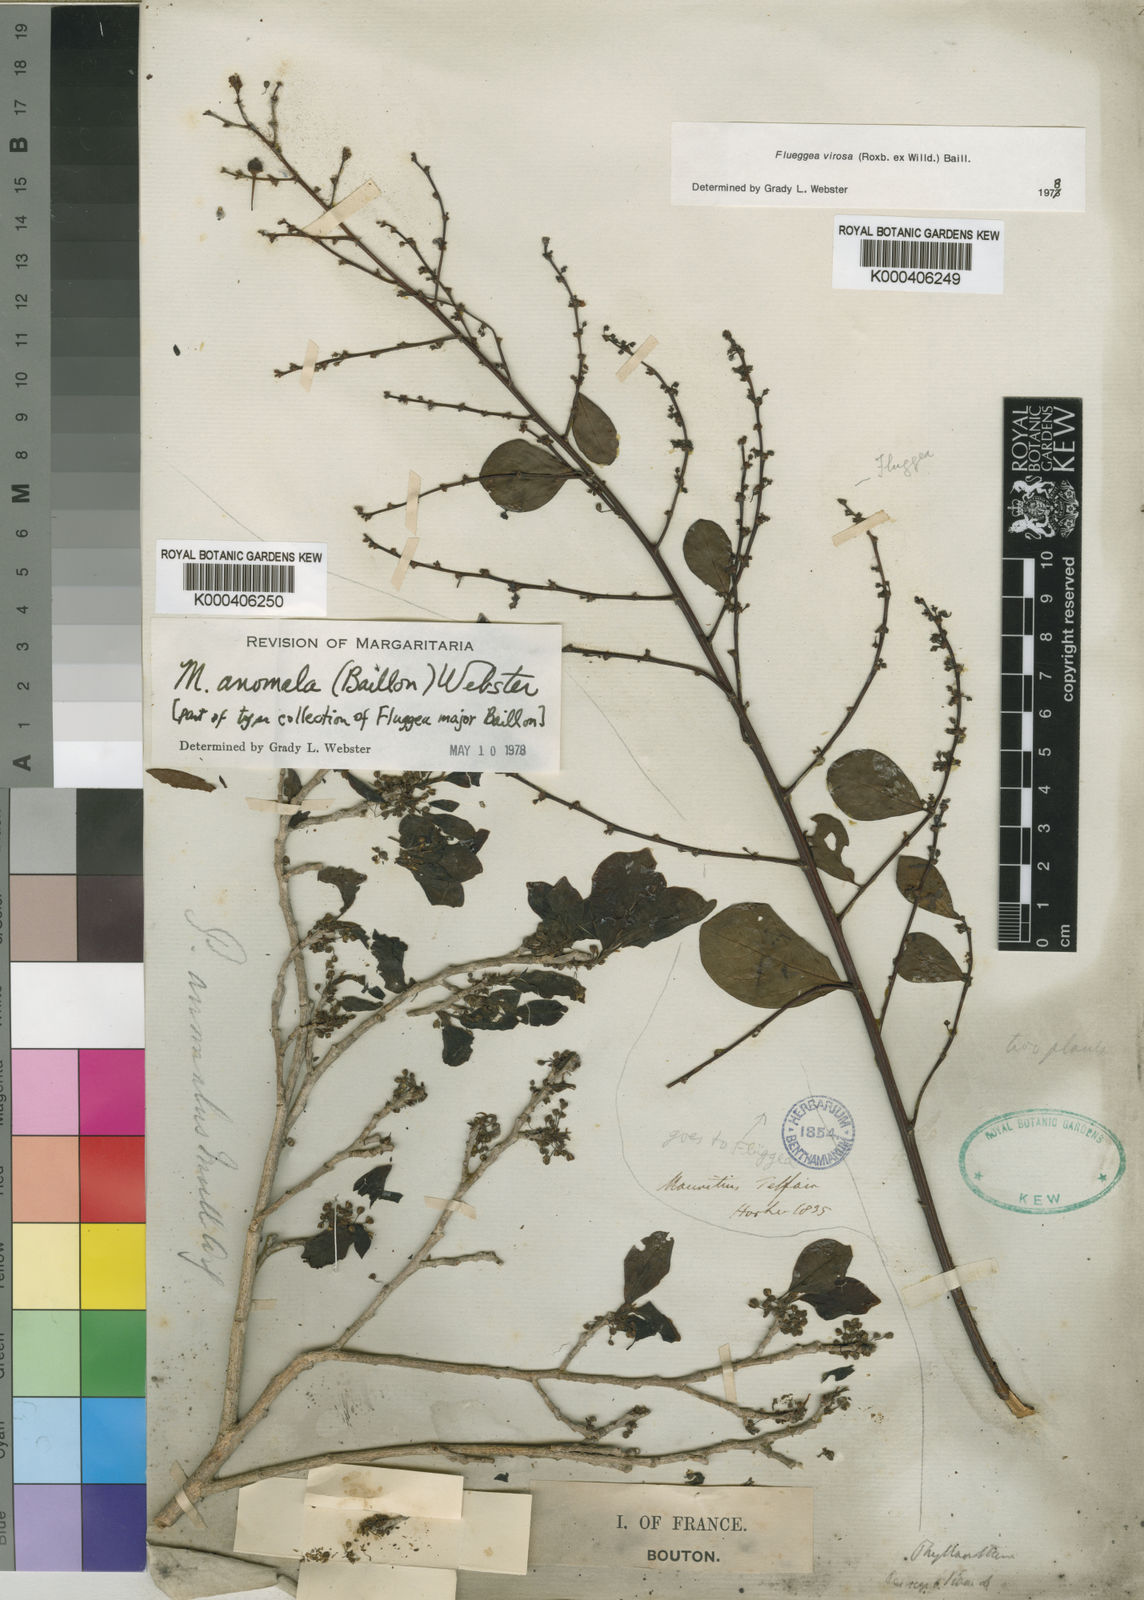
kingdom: Plantae
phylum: Tracheophyta
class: Magnoliopsida
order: Malpighiales
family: Phyllanthaceae
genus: Margaritaria
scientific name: Margaritaria
